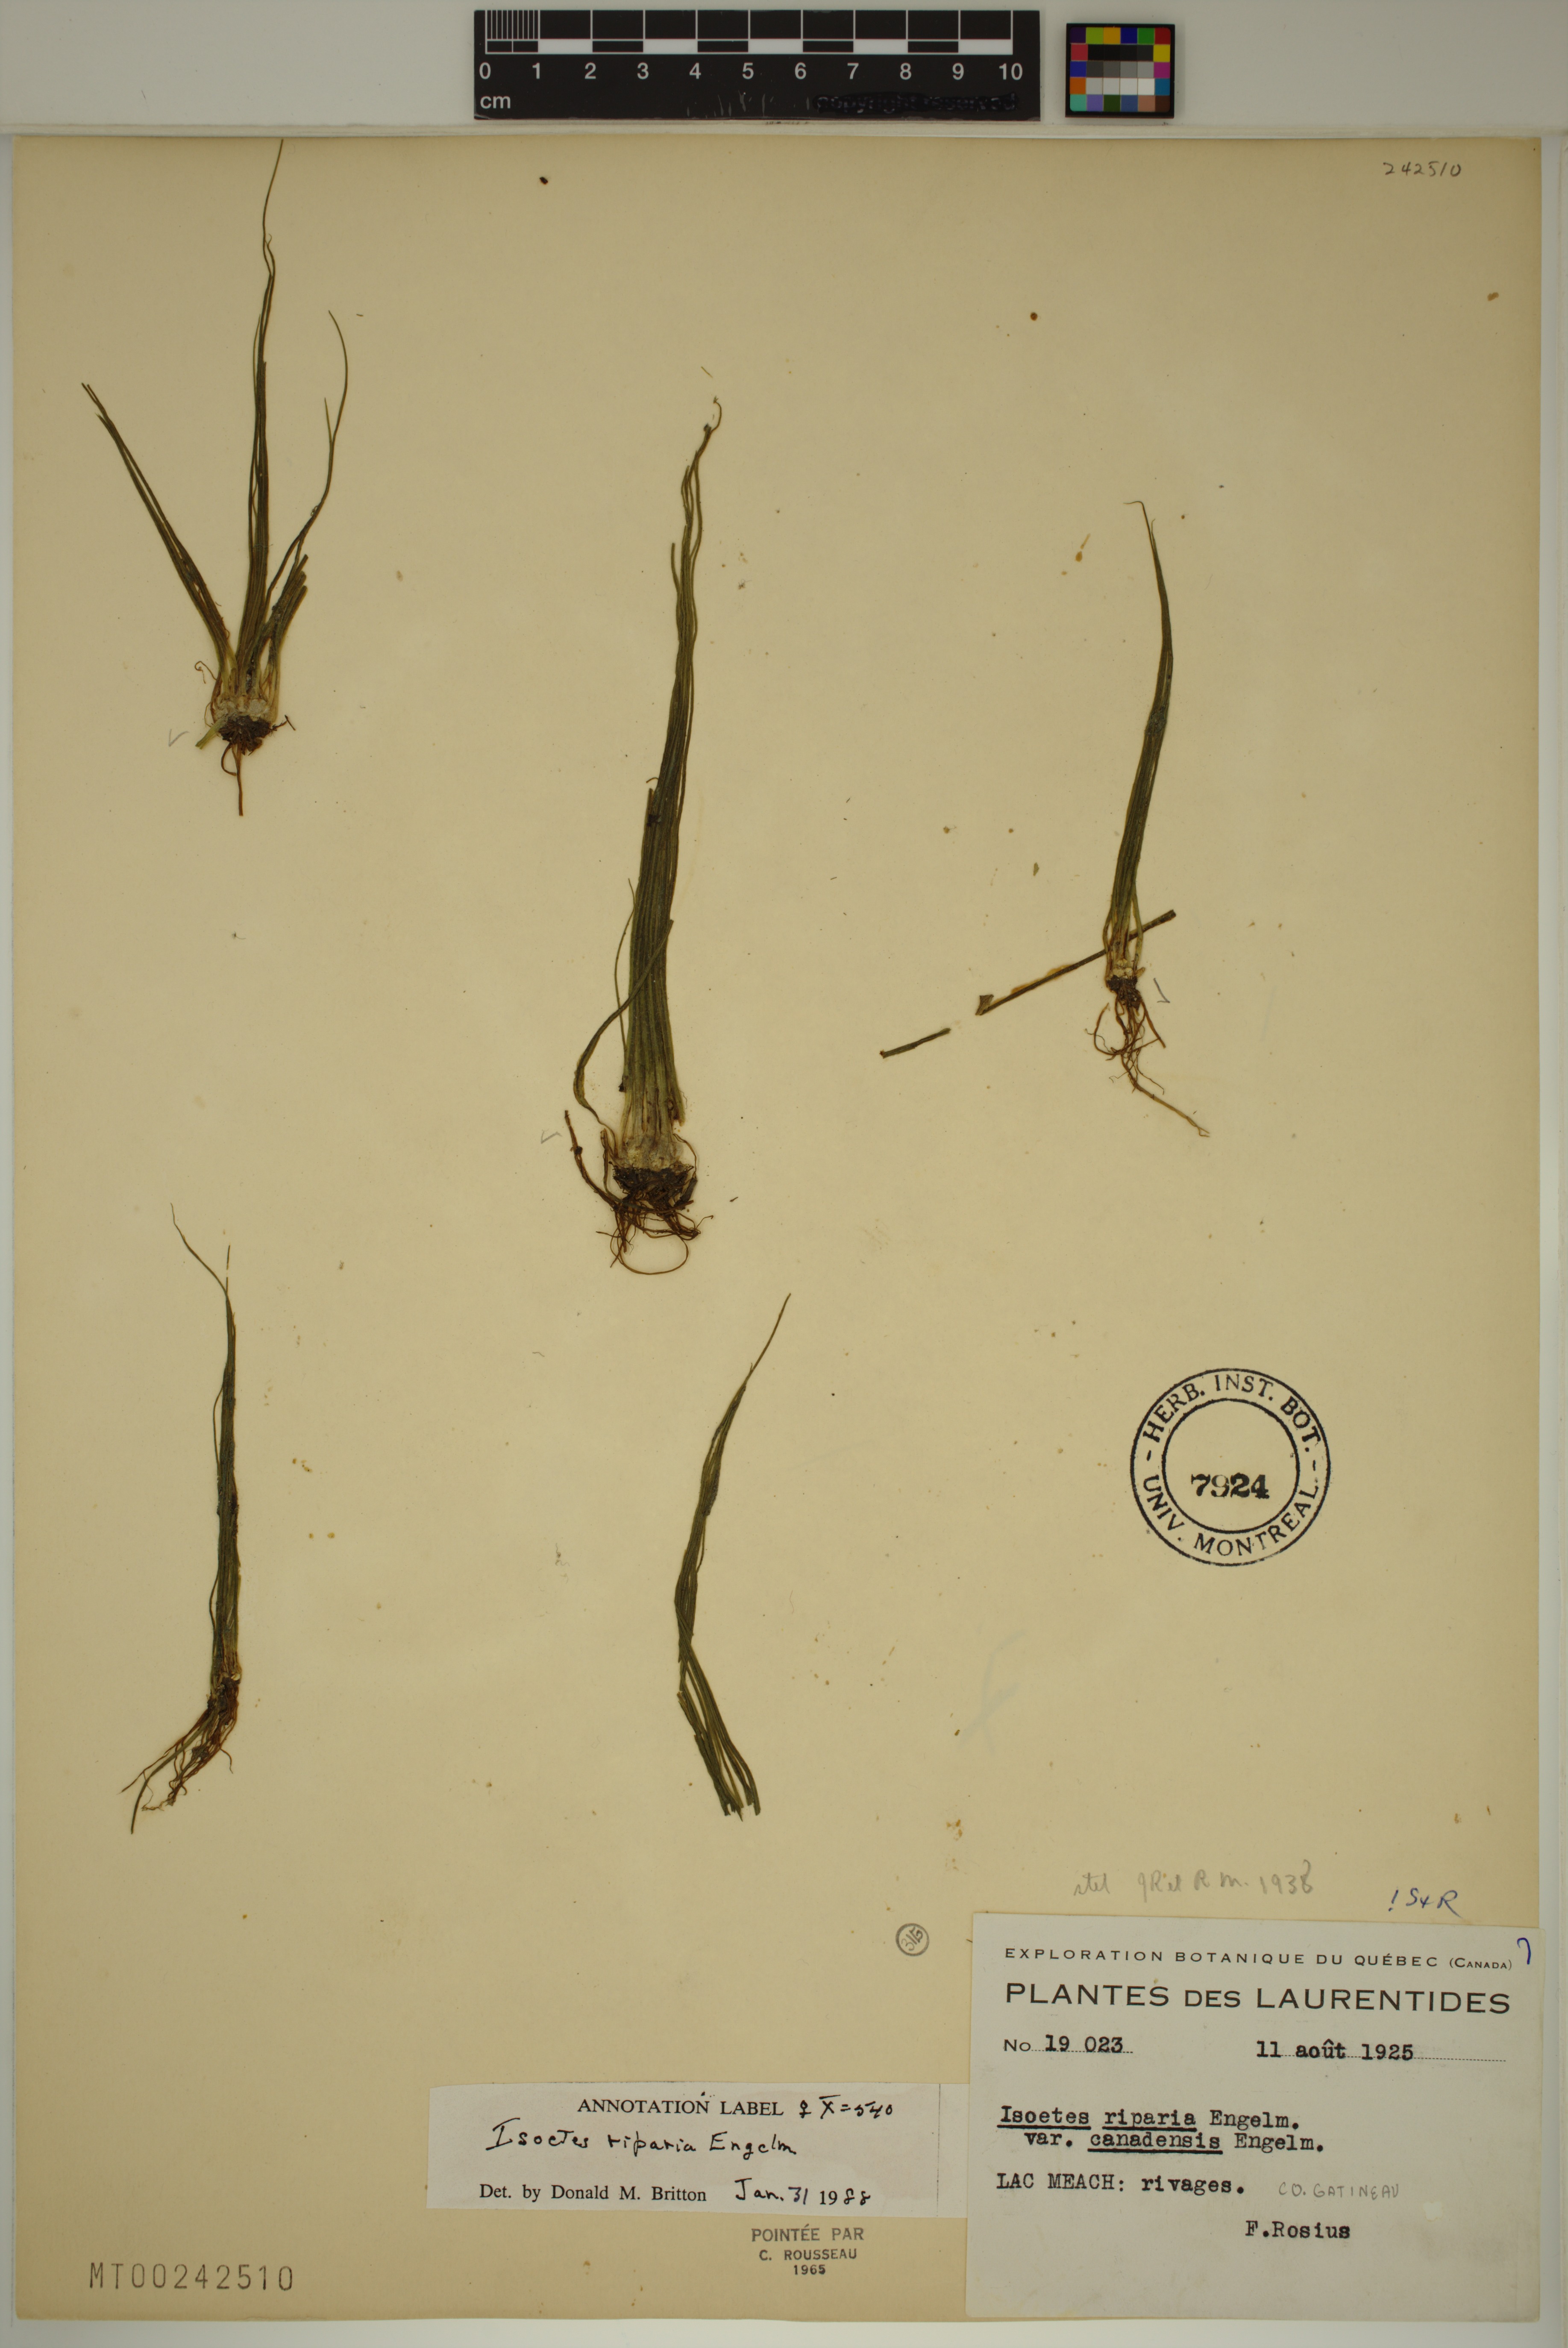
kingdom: Plantae
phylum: Tracheophyta
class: Lycopodiopsida
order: Isoetales
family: Isoetaceae
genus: Isoetes
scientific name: Isoetes septentrionalis
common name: Northern quillwort
